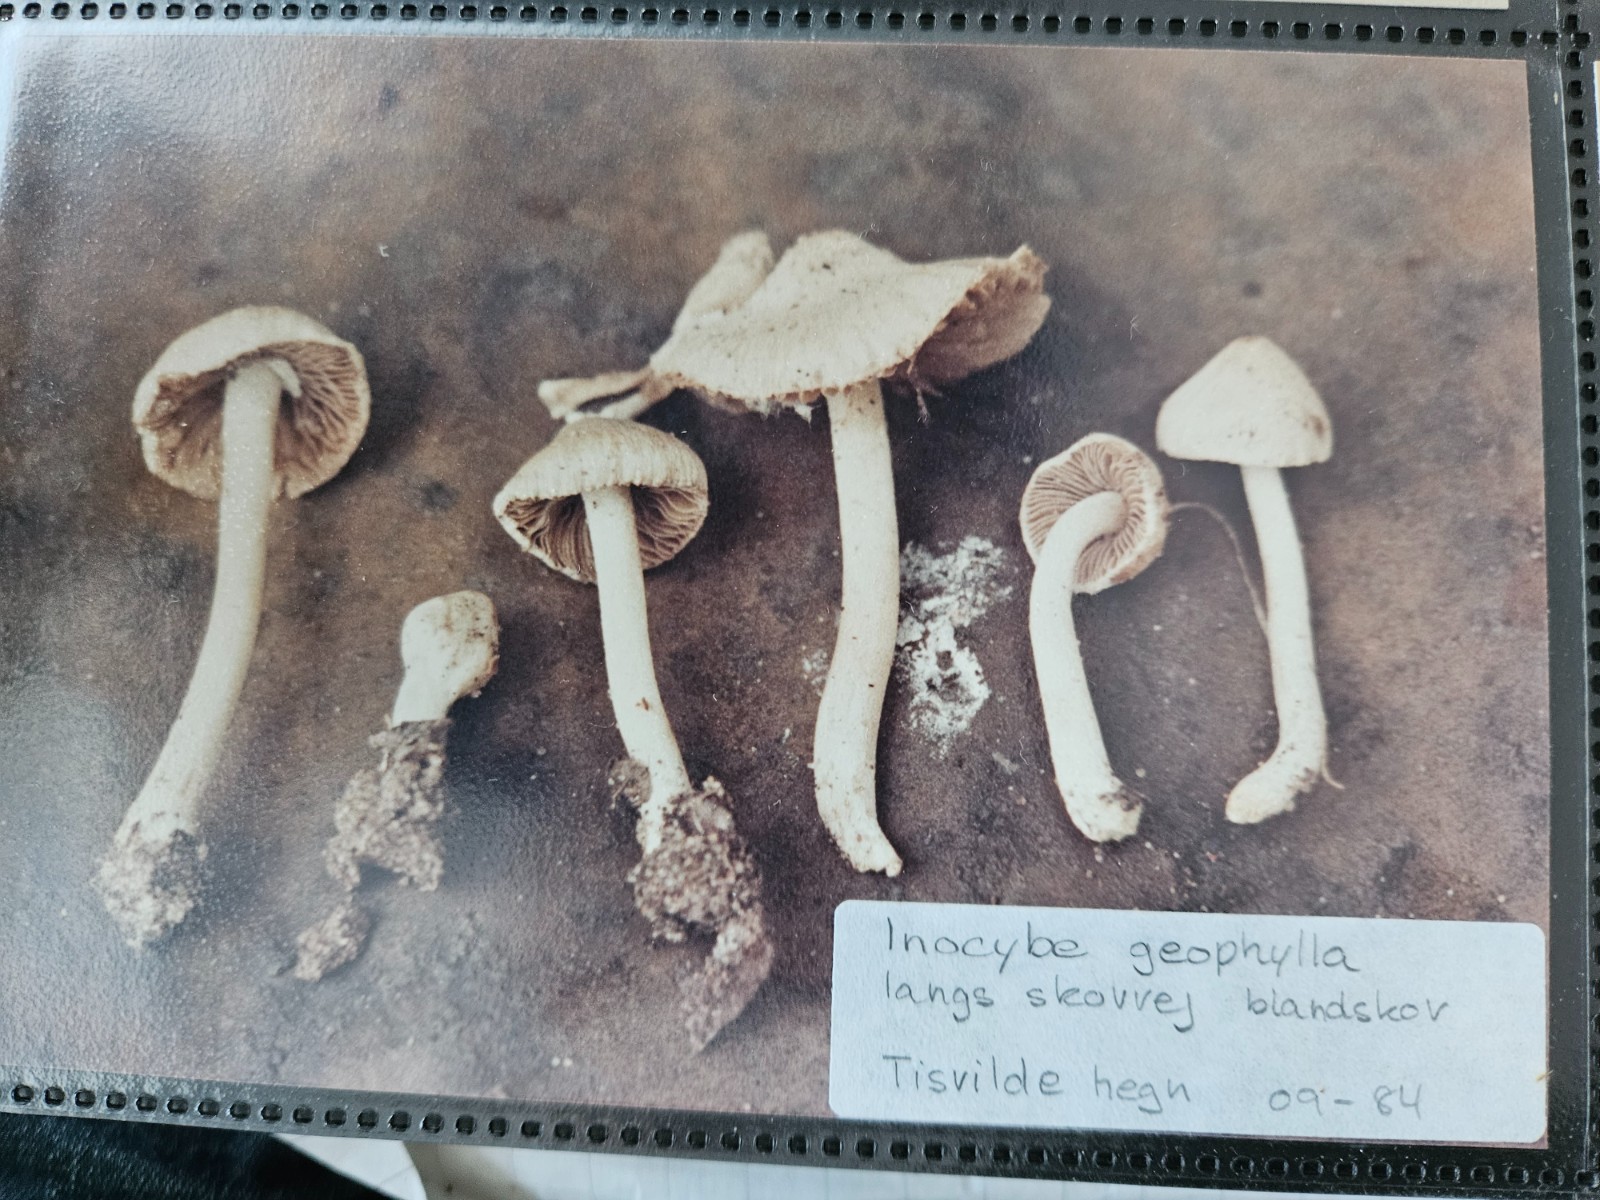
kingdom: Fungi
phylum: Basidiomycota
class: Agaricomycetes
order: Agaricales
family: Inocybaceae
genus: Inocybe
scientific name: Inocybe
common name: almindelig trævlhat
